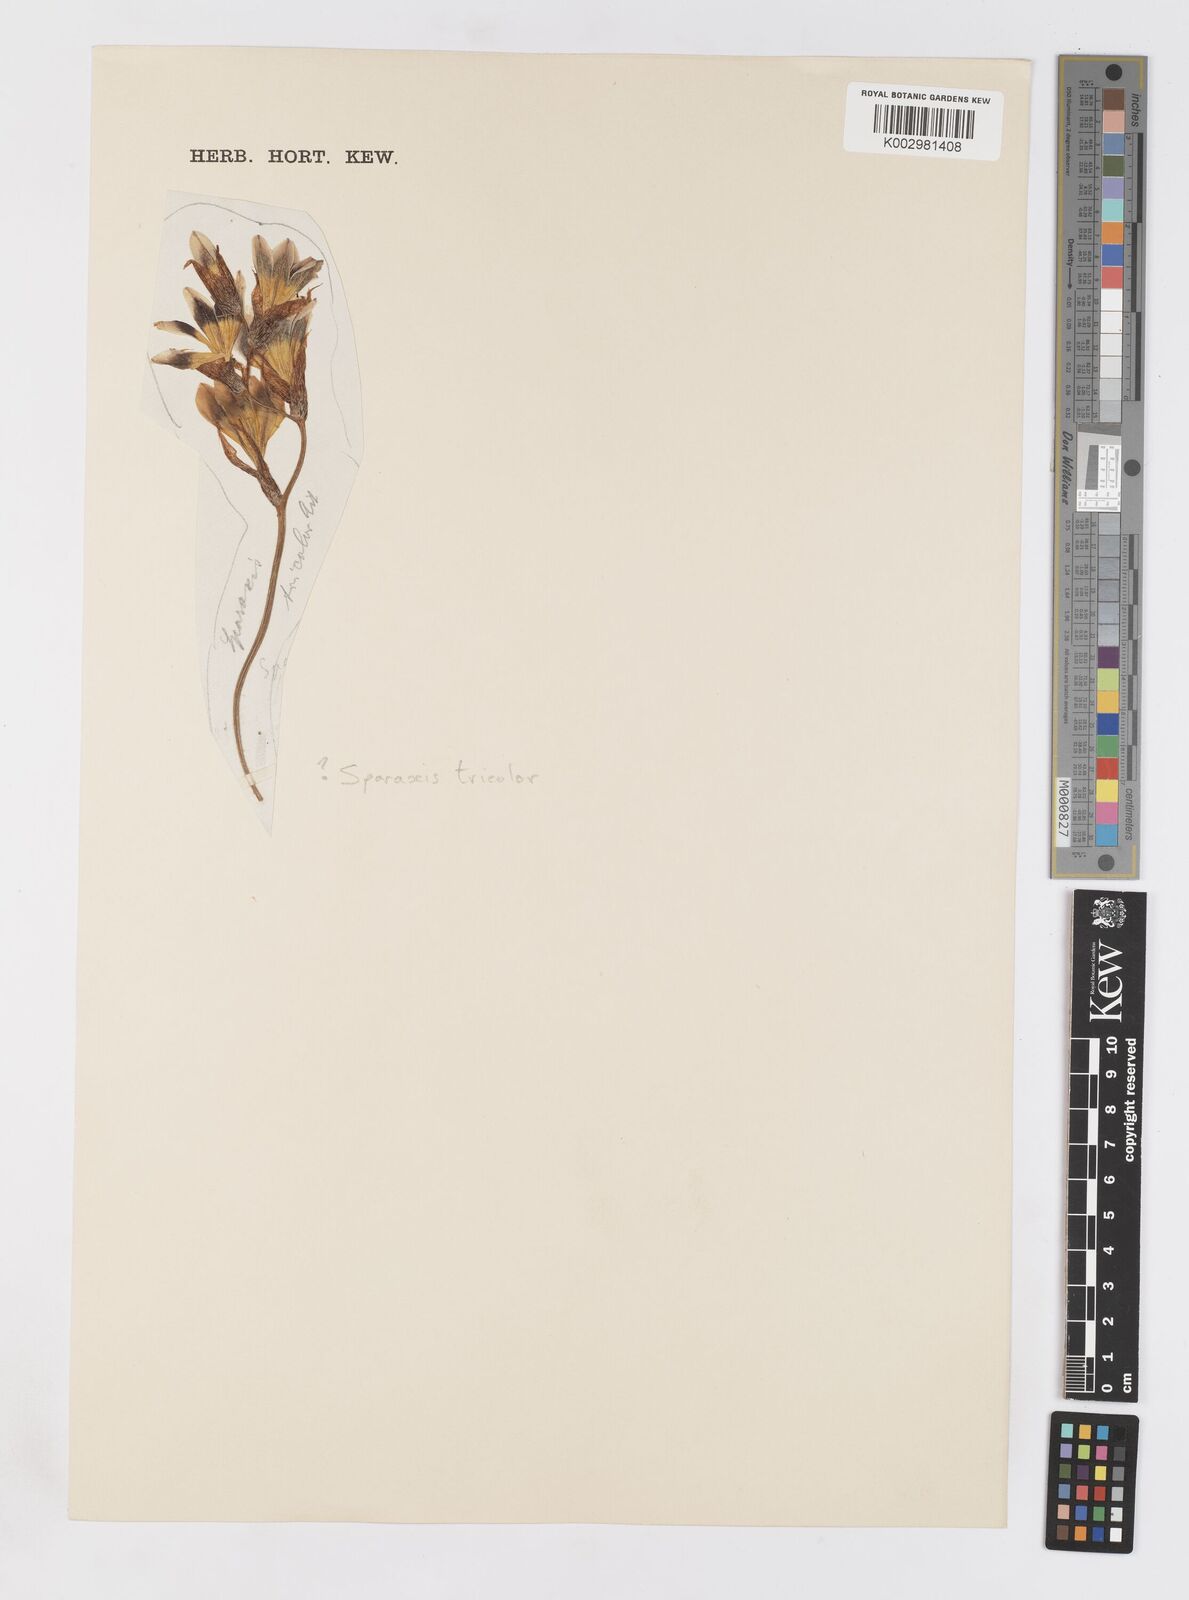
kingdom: Plantae
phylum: Tracheophyta
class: Liliopsida
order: Asparagales
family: Iridaceae
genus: Sparaxis
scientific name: Sparaxis tricolor
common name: Wandflower
